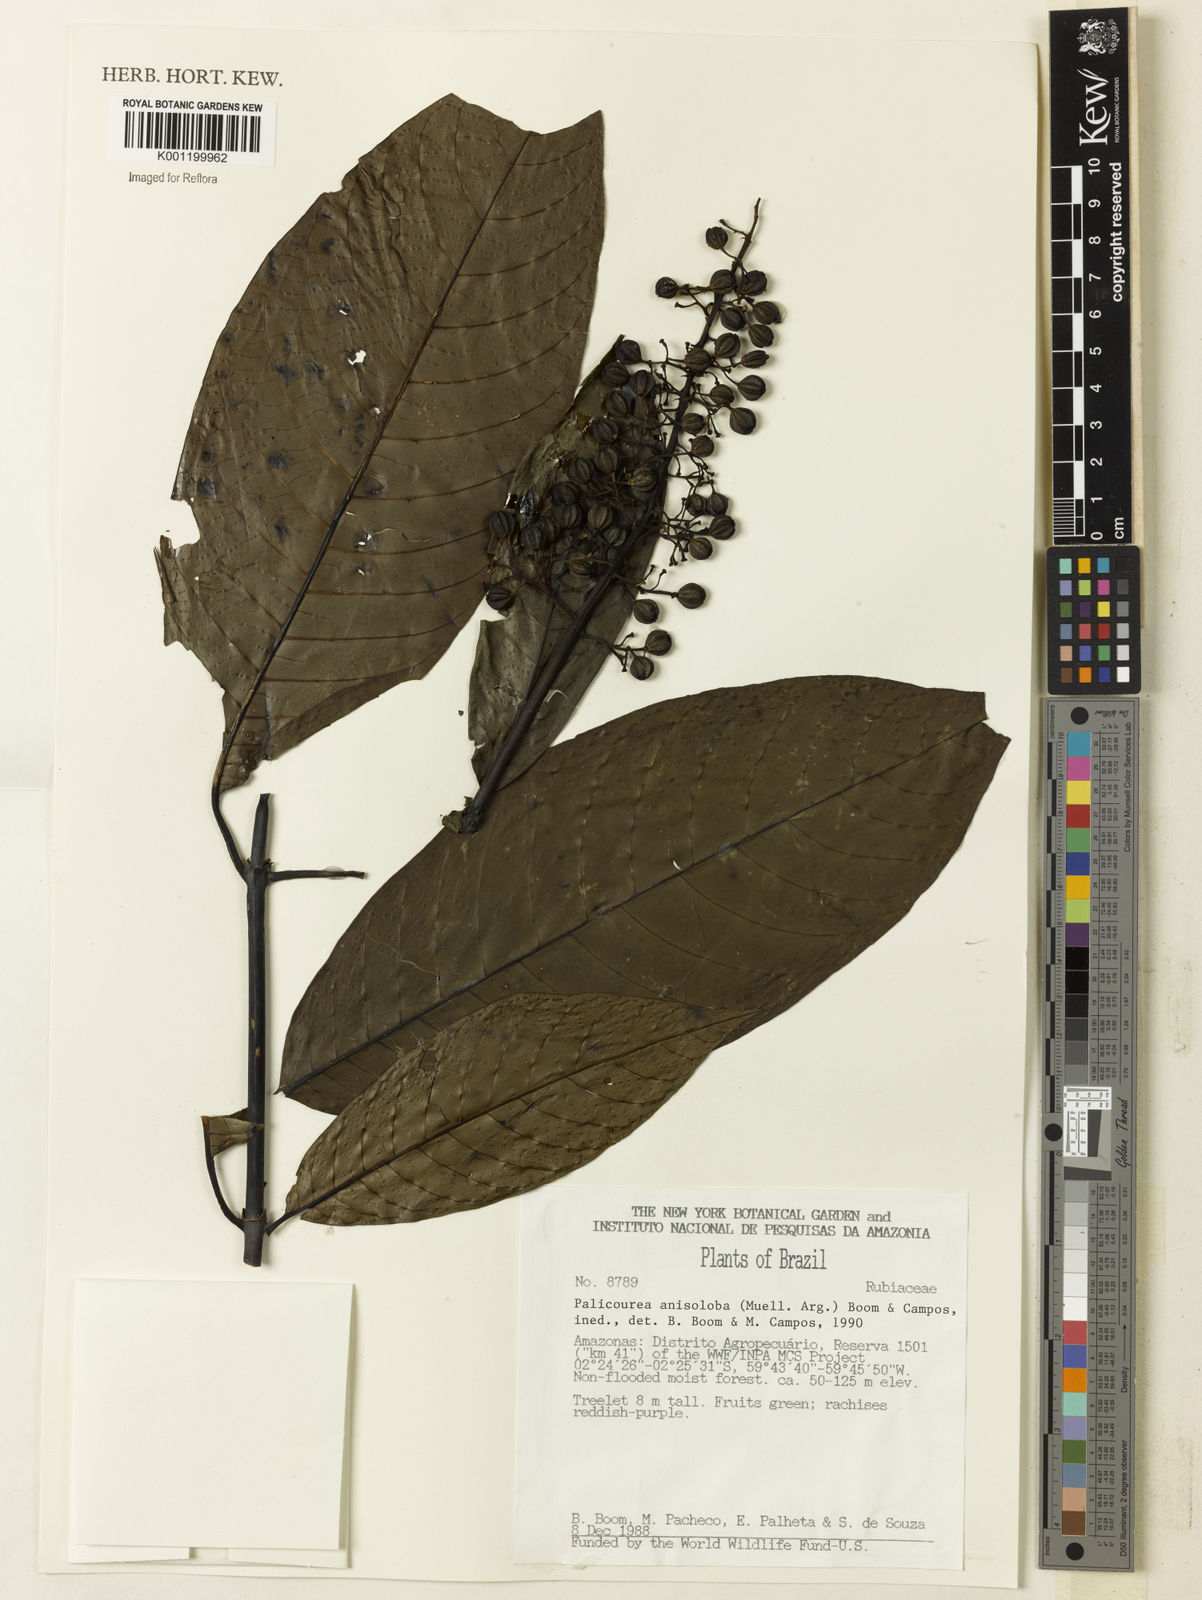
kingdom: Plantae
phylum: Tracheophyta
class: Magnoliopsida
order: Gentianales
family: Rubiaceae
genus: Palicourea
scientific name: Palicourea
